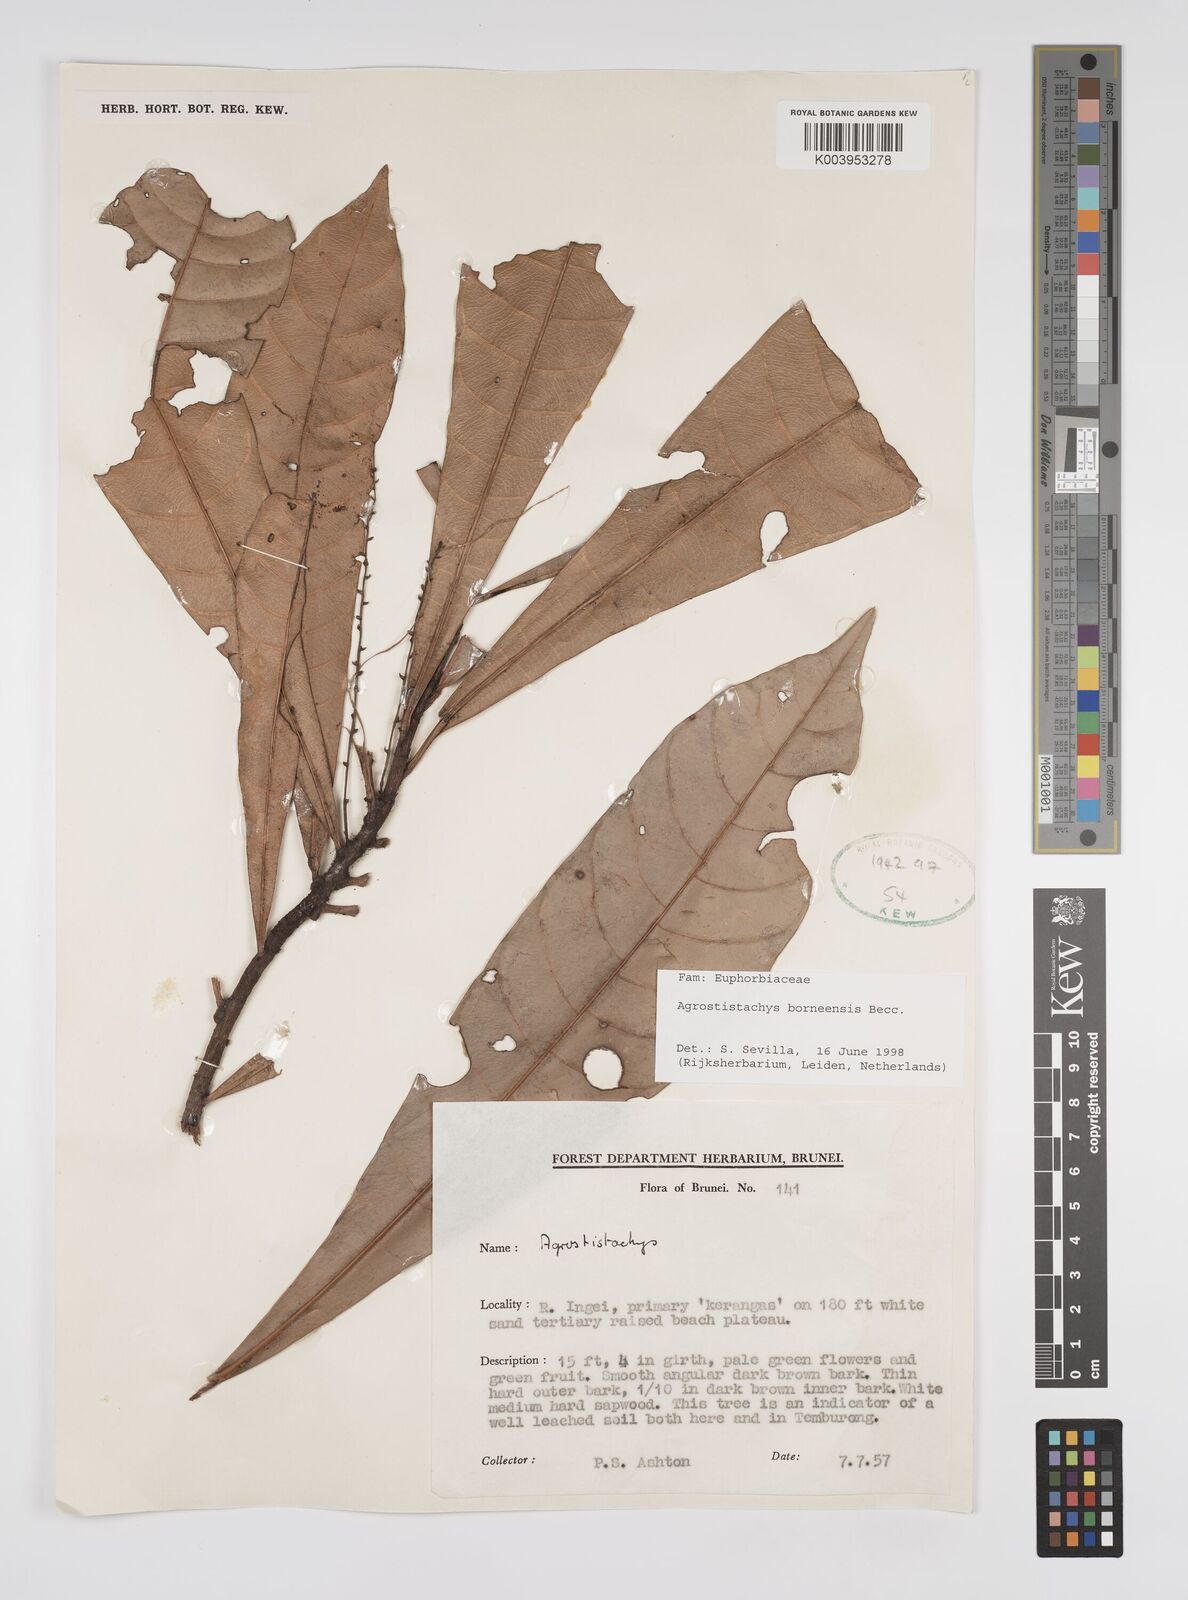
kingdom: Plantae
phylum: Tracheophyta
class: Magnoliopsida
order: Malpighiales
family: Euphorbiaceae
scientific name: Euphorbiaceae
